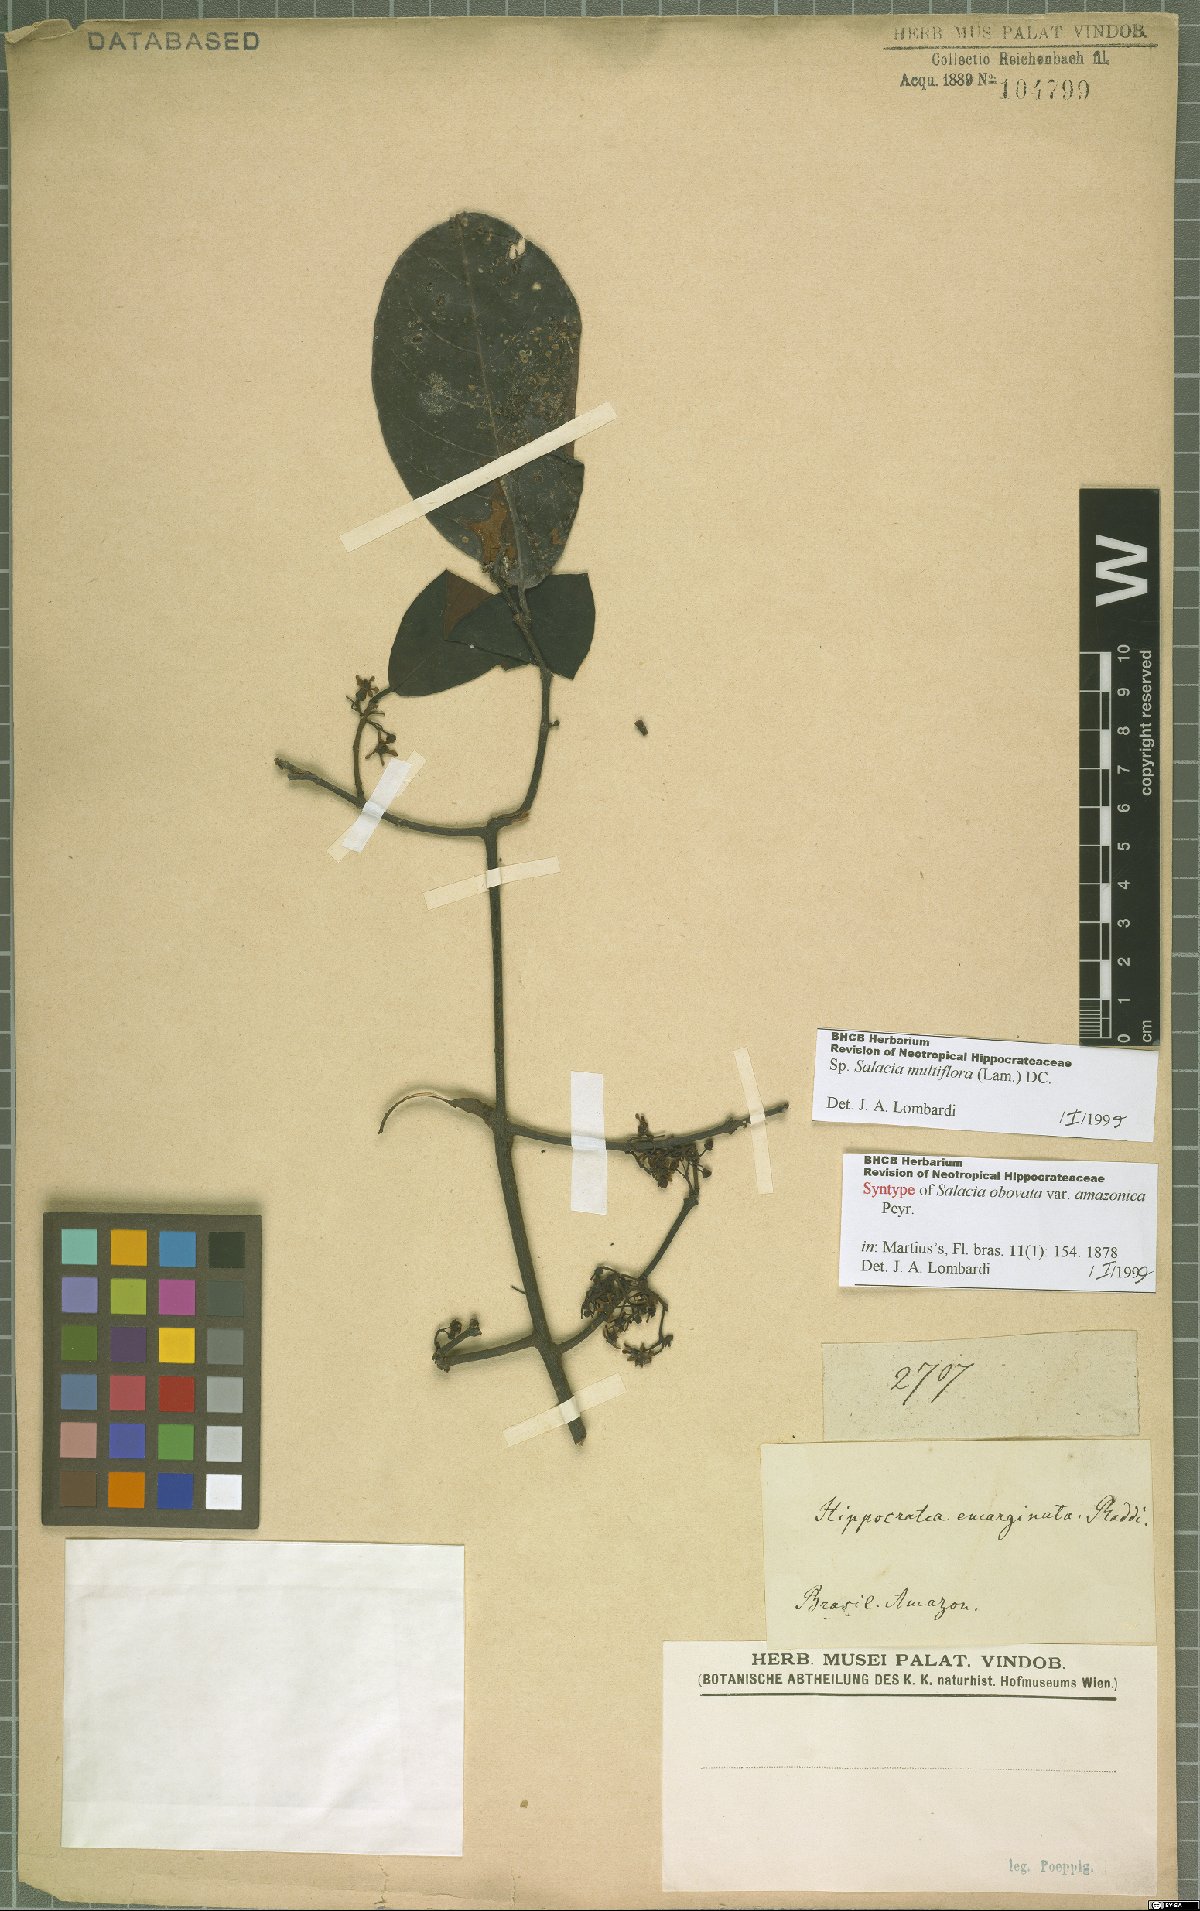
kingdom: Plantae
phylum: Tracheophyta
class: Magnoliopsida
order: Celastrales
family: Celastraceae
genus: Salacia
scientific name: Salacia multiflora
